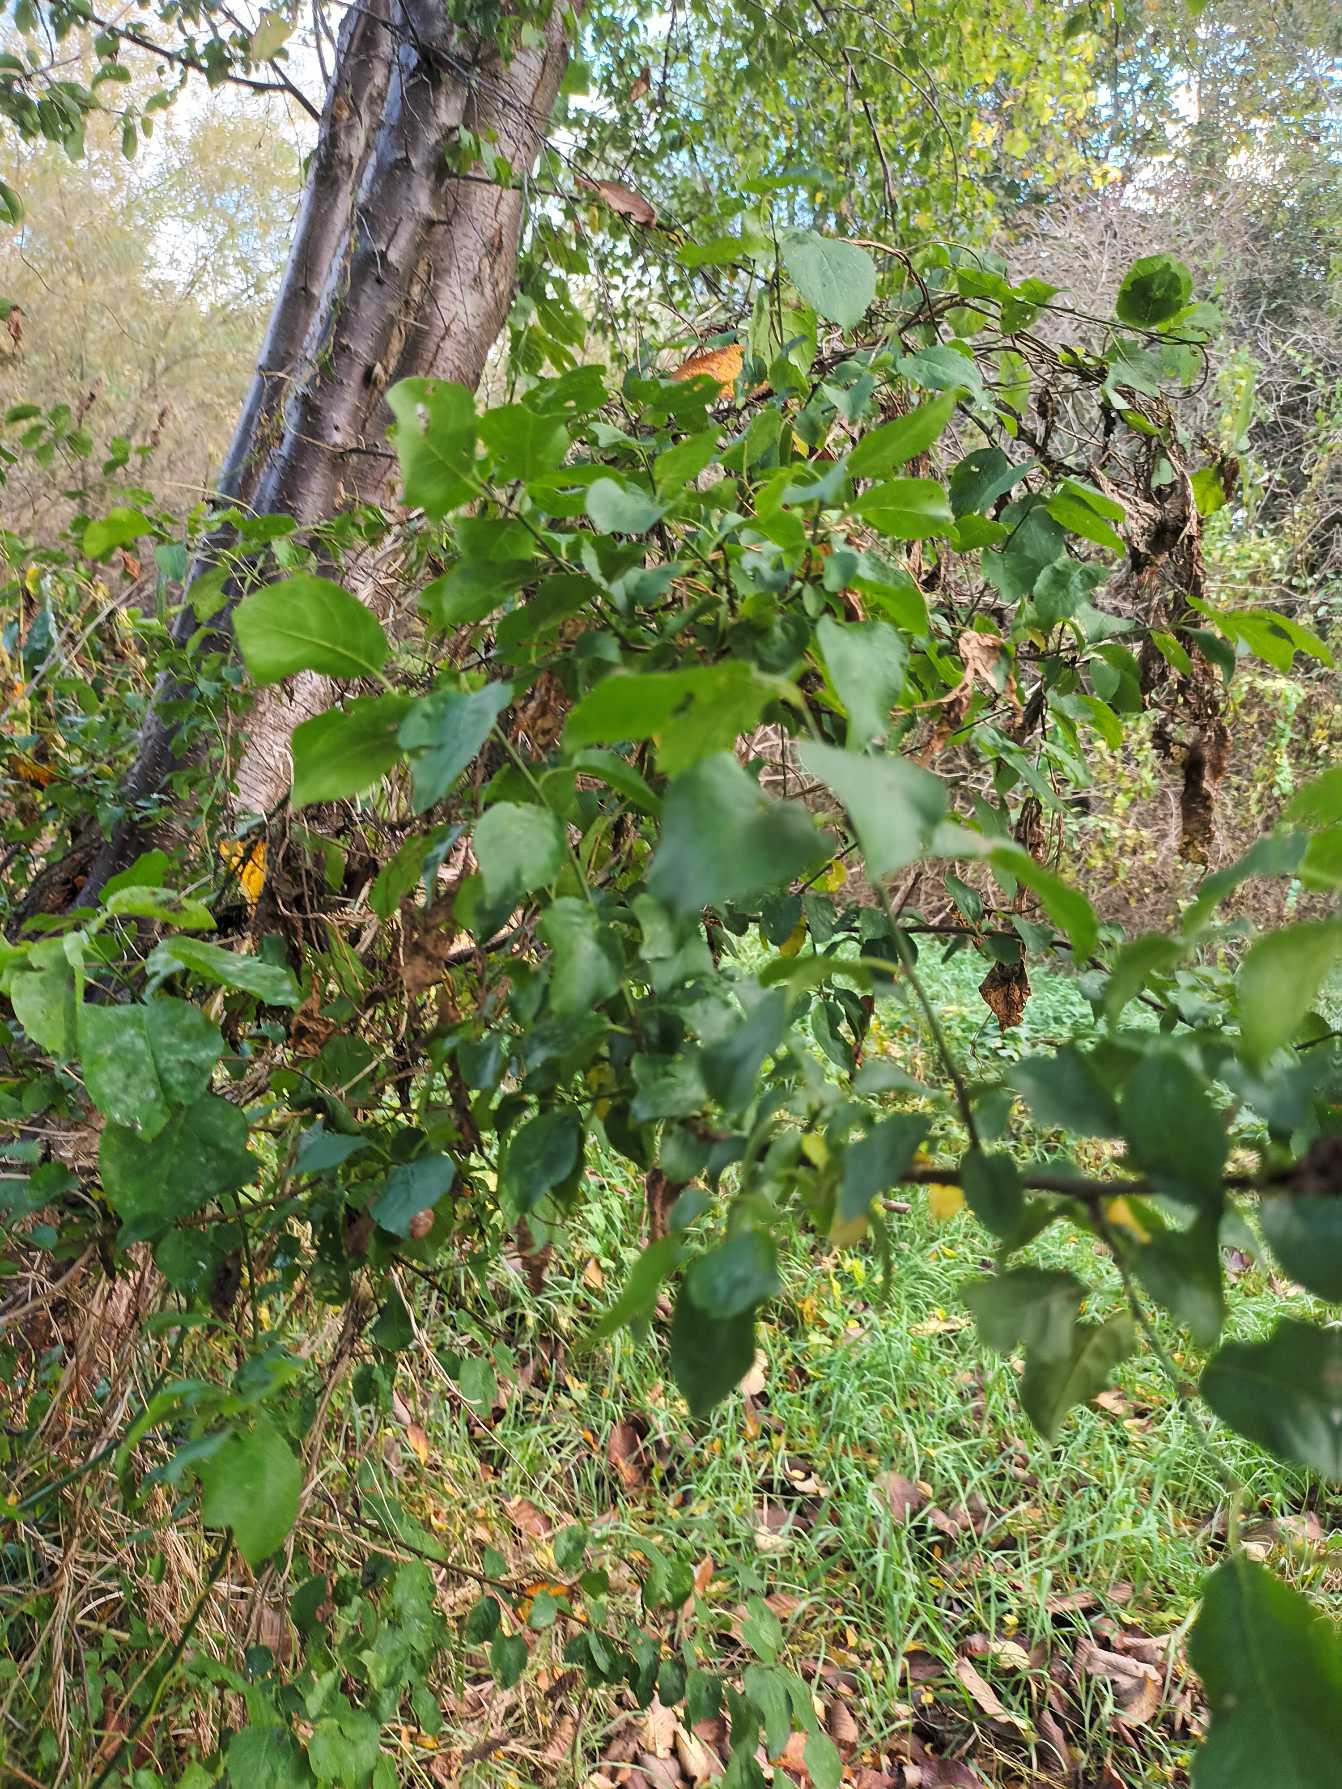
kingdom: Plantae
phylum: Tracheophyta
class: Magnoliopsida
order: Rosales
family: Rosaceae
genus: Prunus
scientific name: Prunus cerasifera
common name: Mirabel
